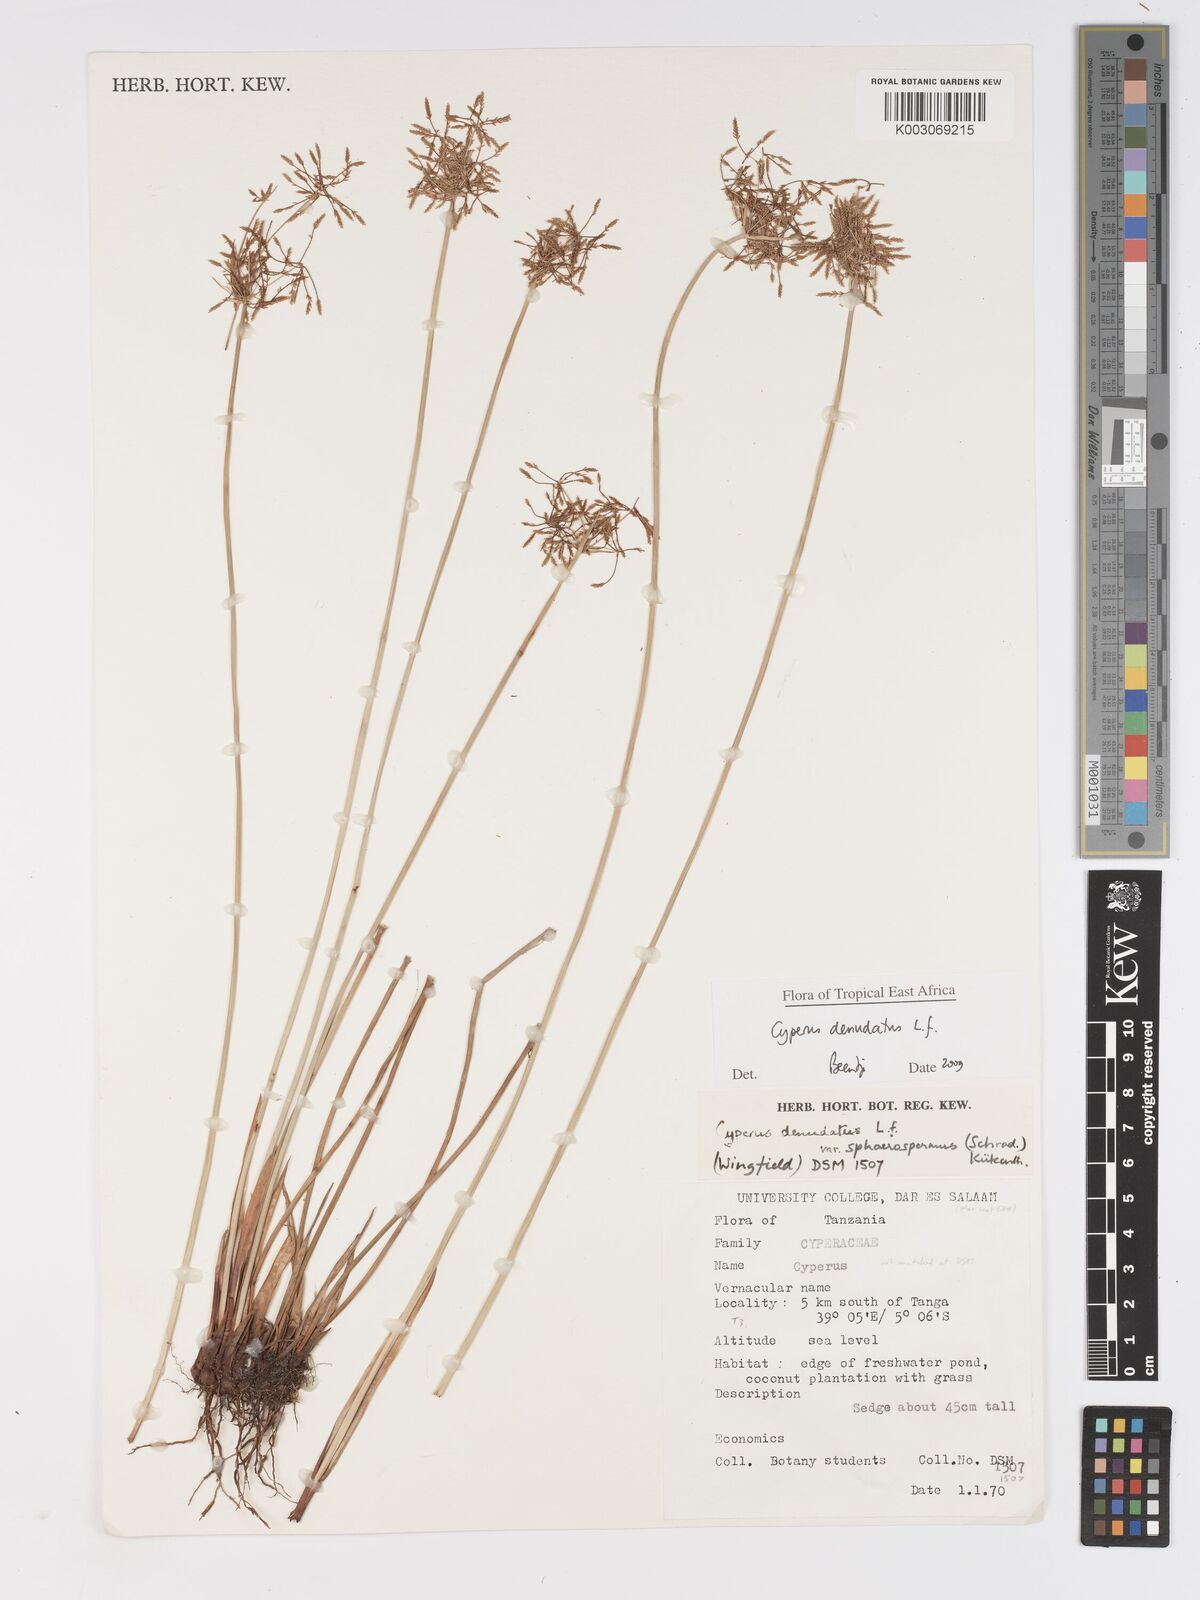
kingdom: Plantae
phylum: Tracheophyta
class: Liliopsida
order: Poales
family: Cyperaceae
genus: Cyperus
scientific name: Cyperus denudatus
